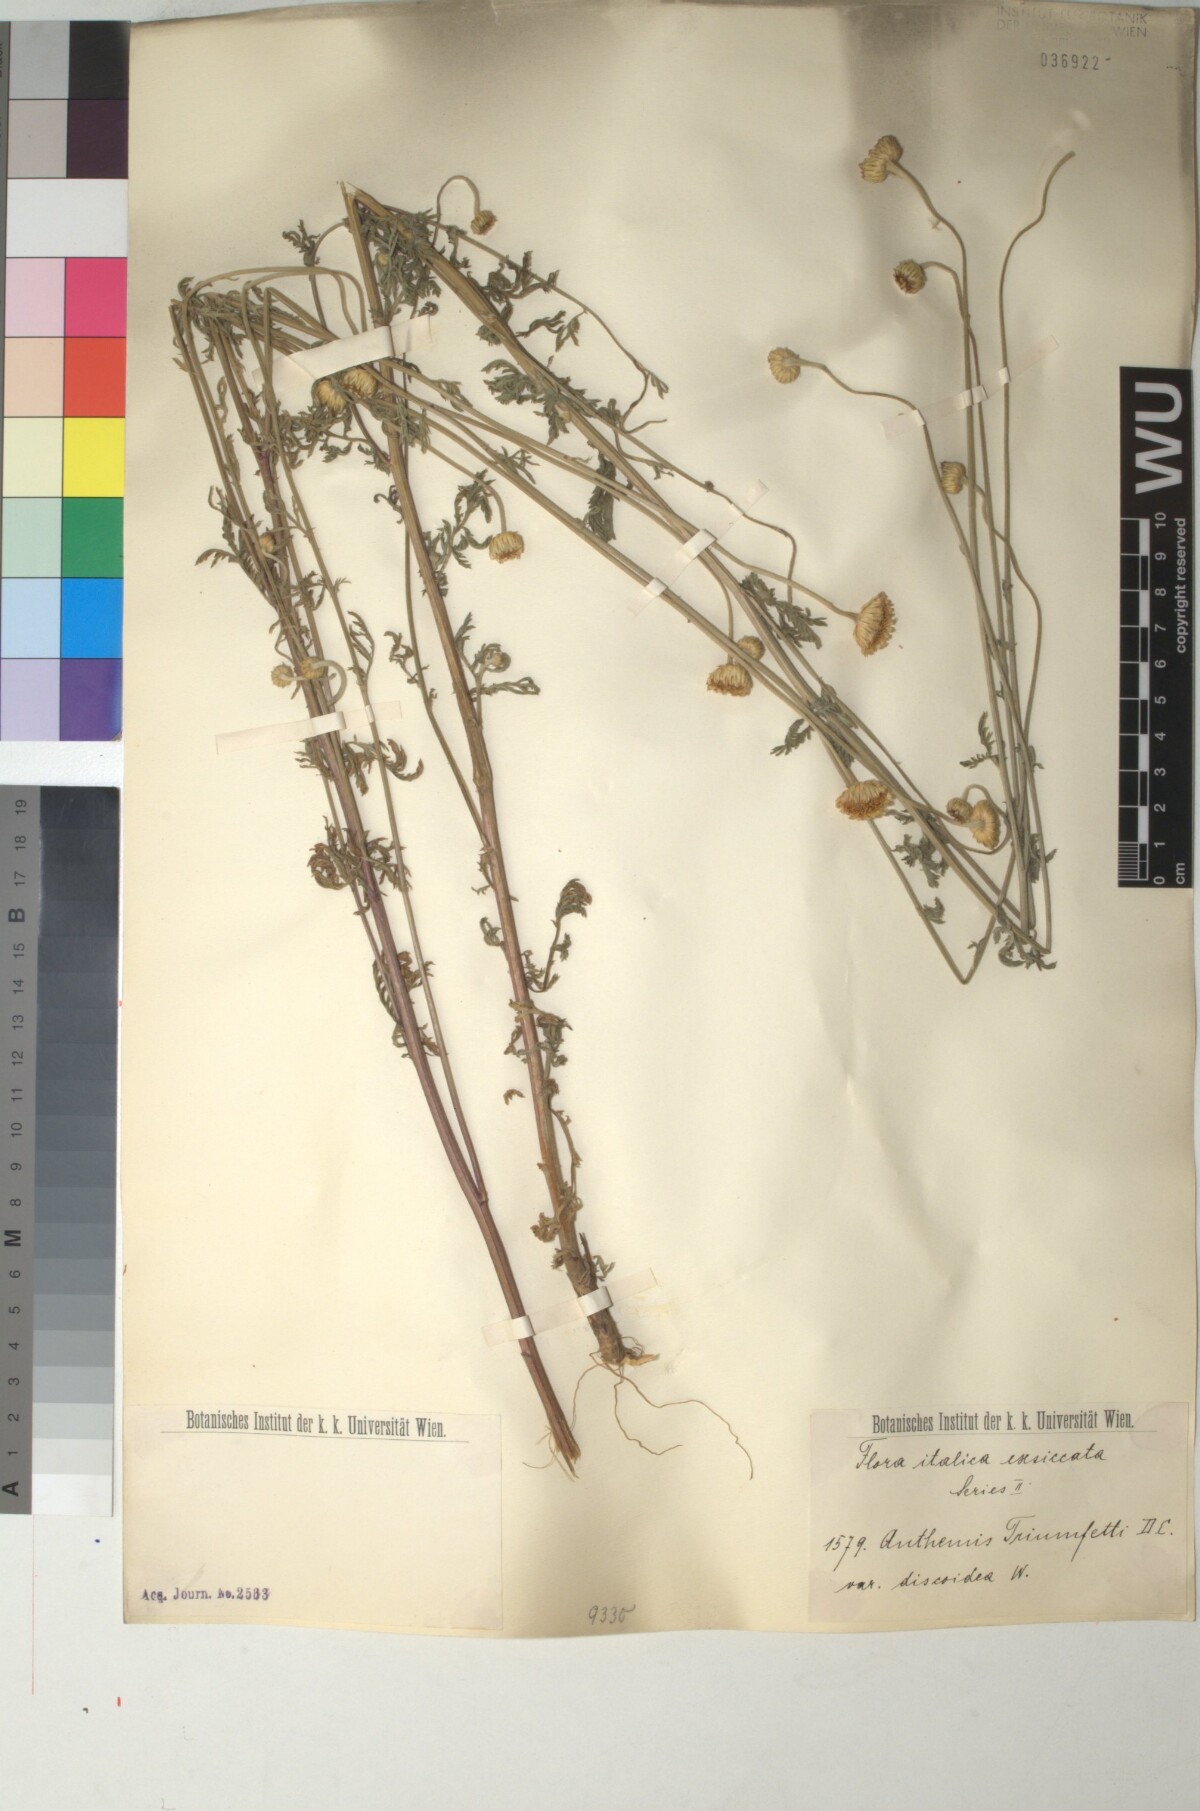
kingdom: Plantae
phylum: Tracheophyta
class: Magnoliopsida
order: Asterales
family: Asteraceae
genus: Cota
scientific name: Cota triumfetti
